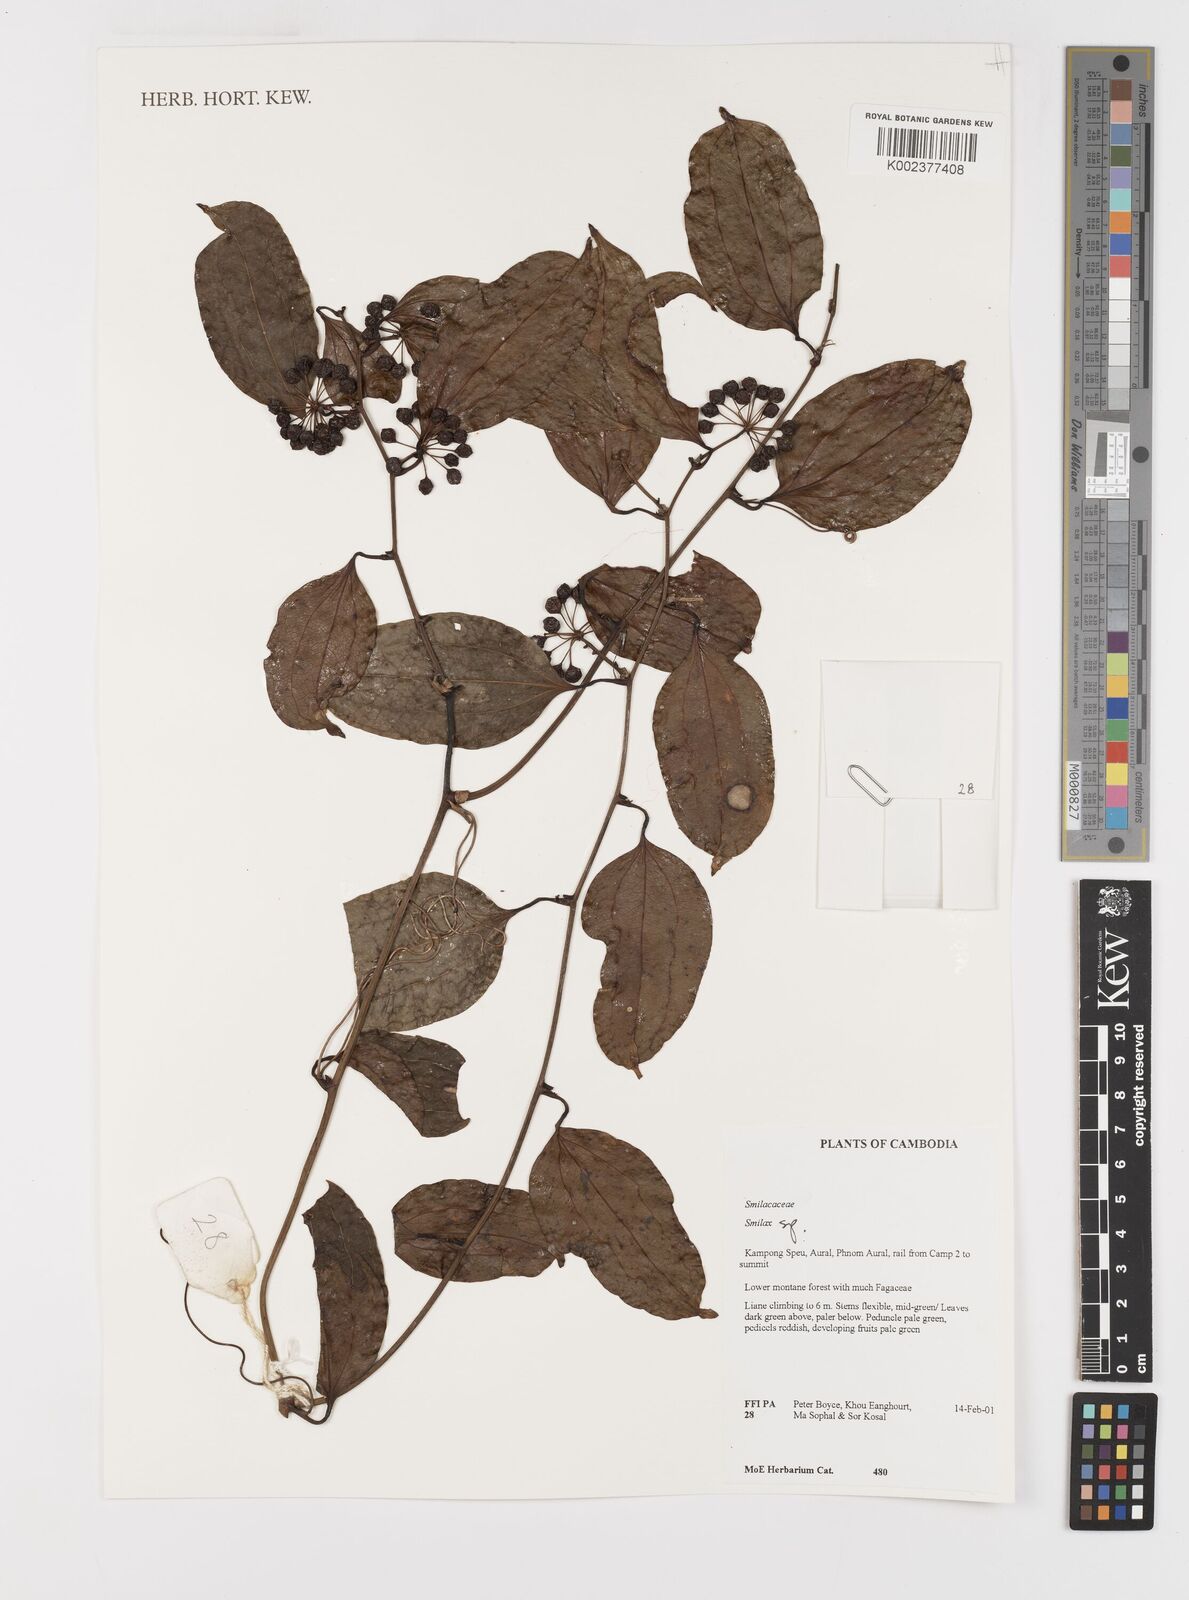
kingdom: Plantae
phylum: Tracheophyta
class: Liliopsida
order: Liliales
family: Smilacaceae
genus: Smilax
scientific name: Smilax
